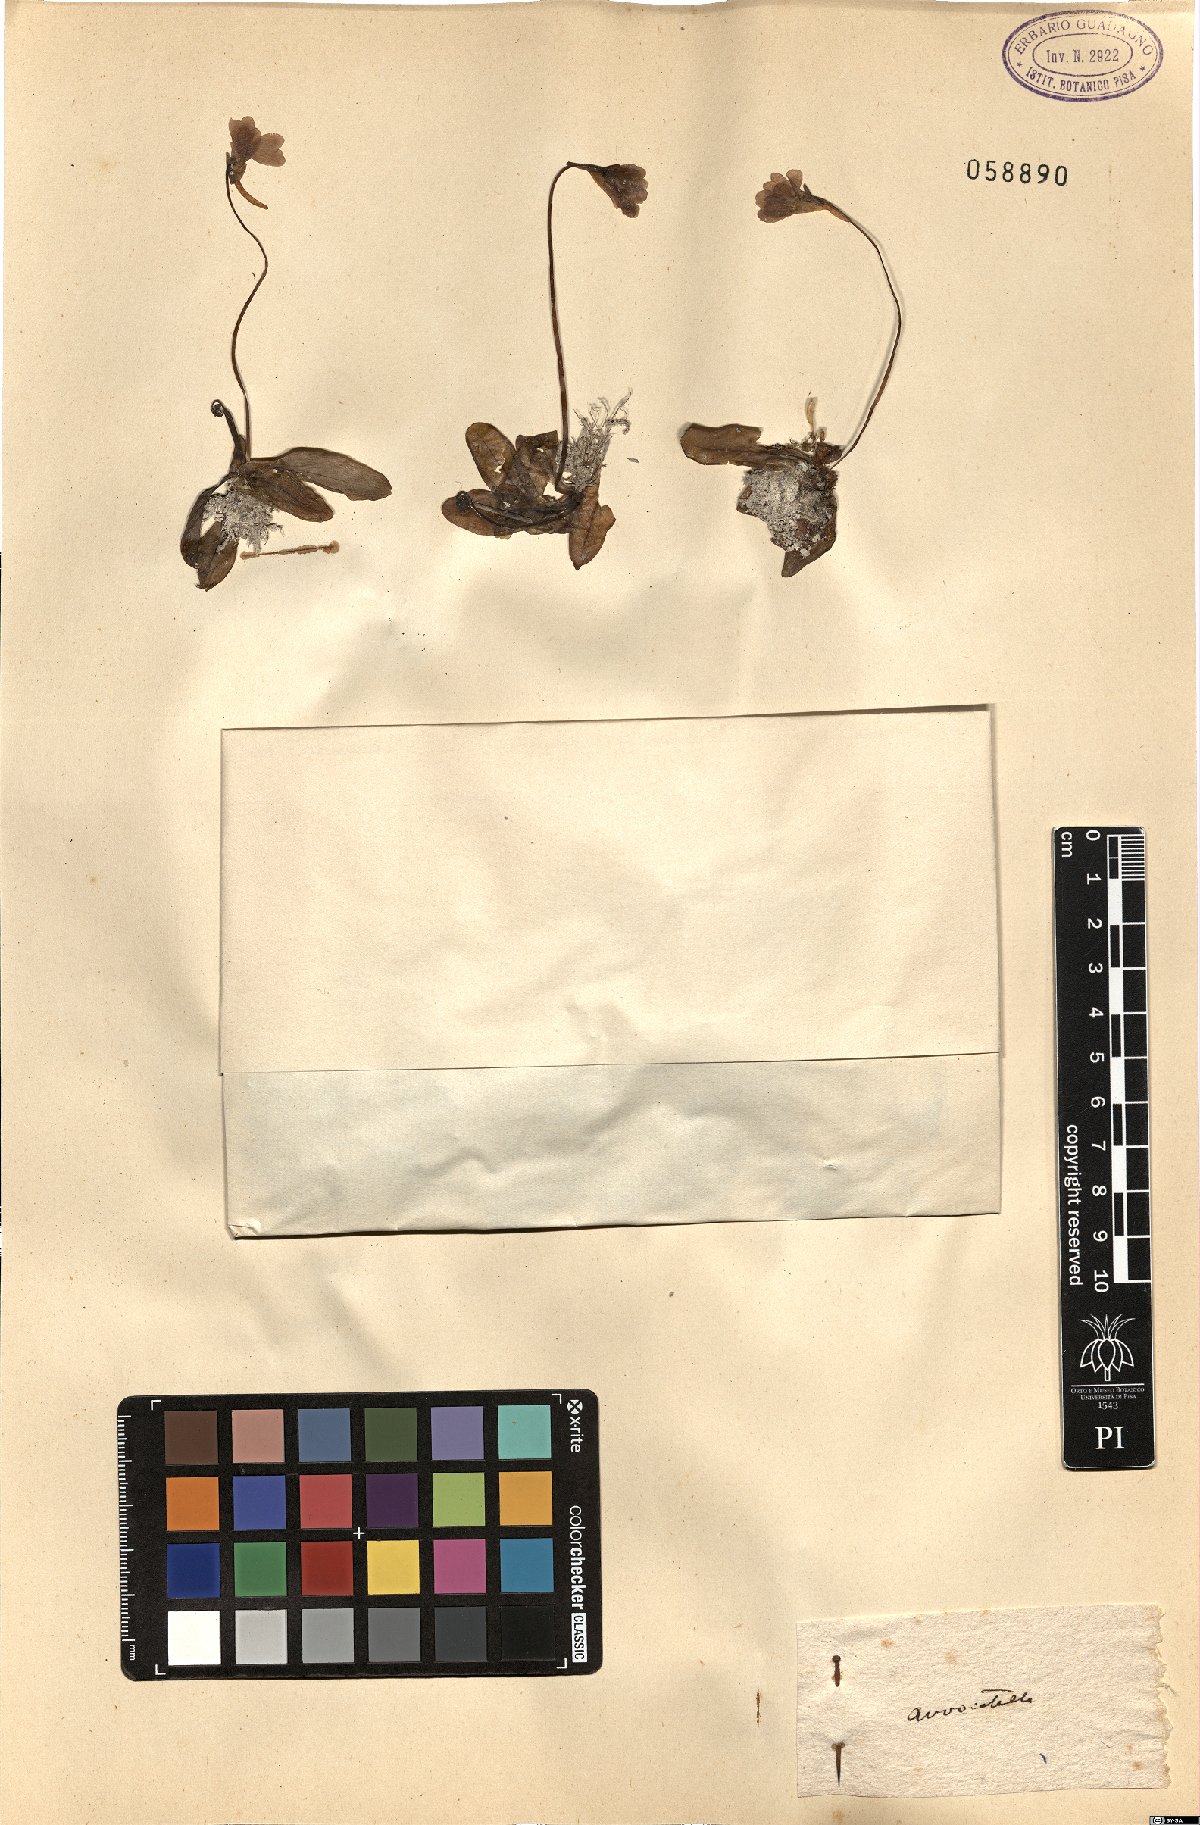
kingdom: Plantae
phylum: Tracheophyta
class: Magnoliopsida
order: Lamiales
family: Lentibulariaceae
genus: Pinguicula
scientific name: Pinguicula
